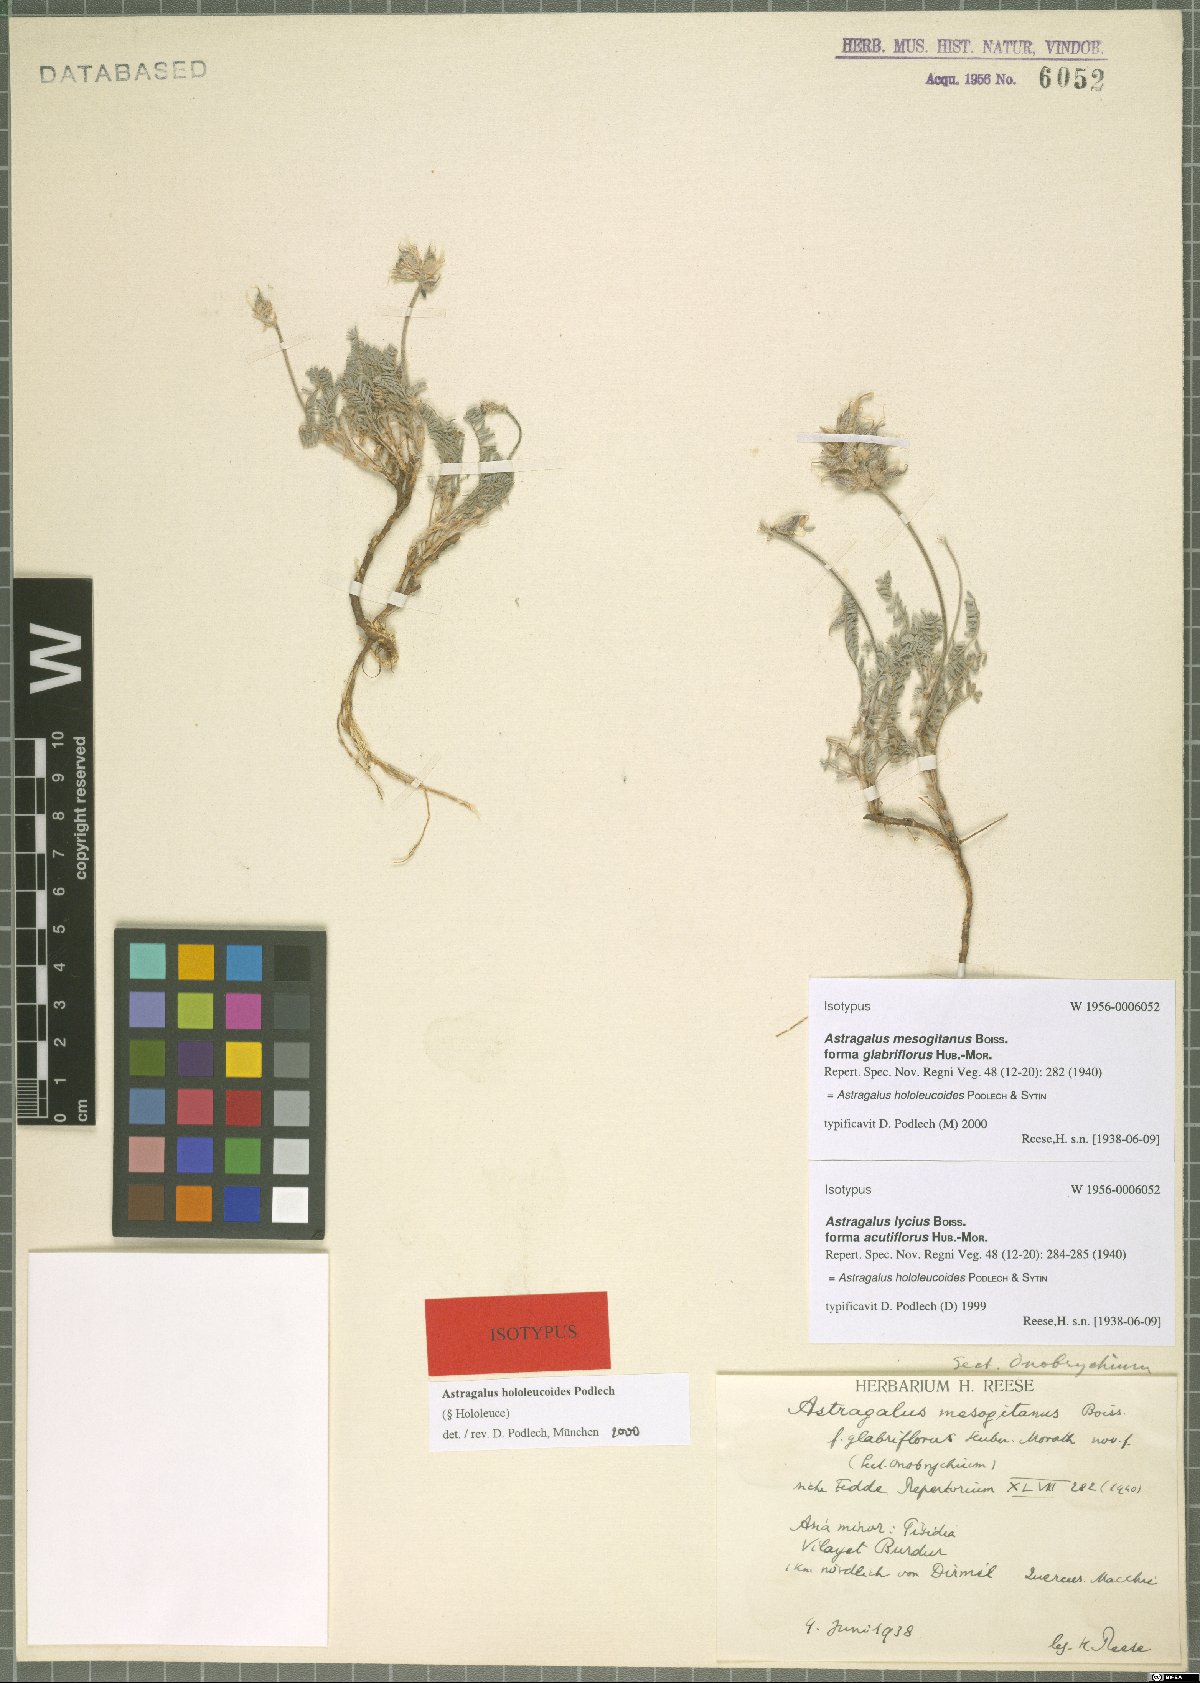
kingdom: Plantae
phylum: Tracheophyta
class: Magnoliopsida
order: Fabales
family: Fabaceae
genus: Astragalus
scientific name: Astragalus mesogitanus
